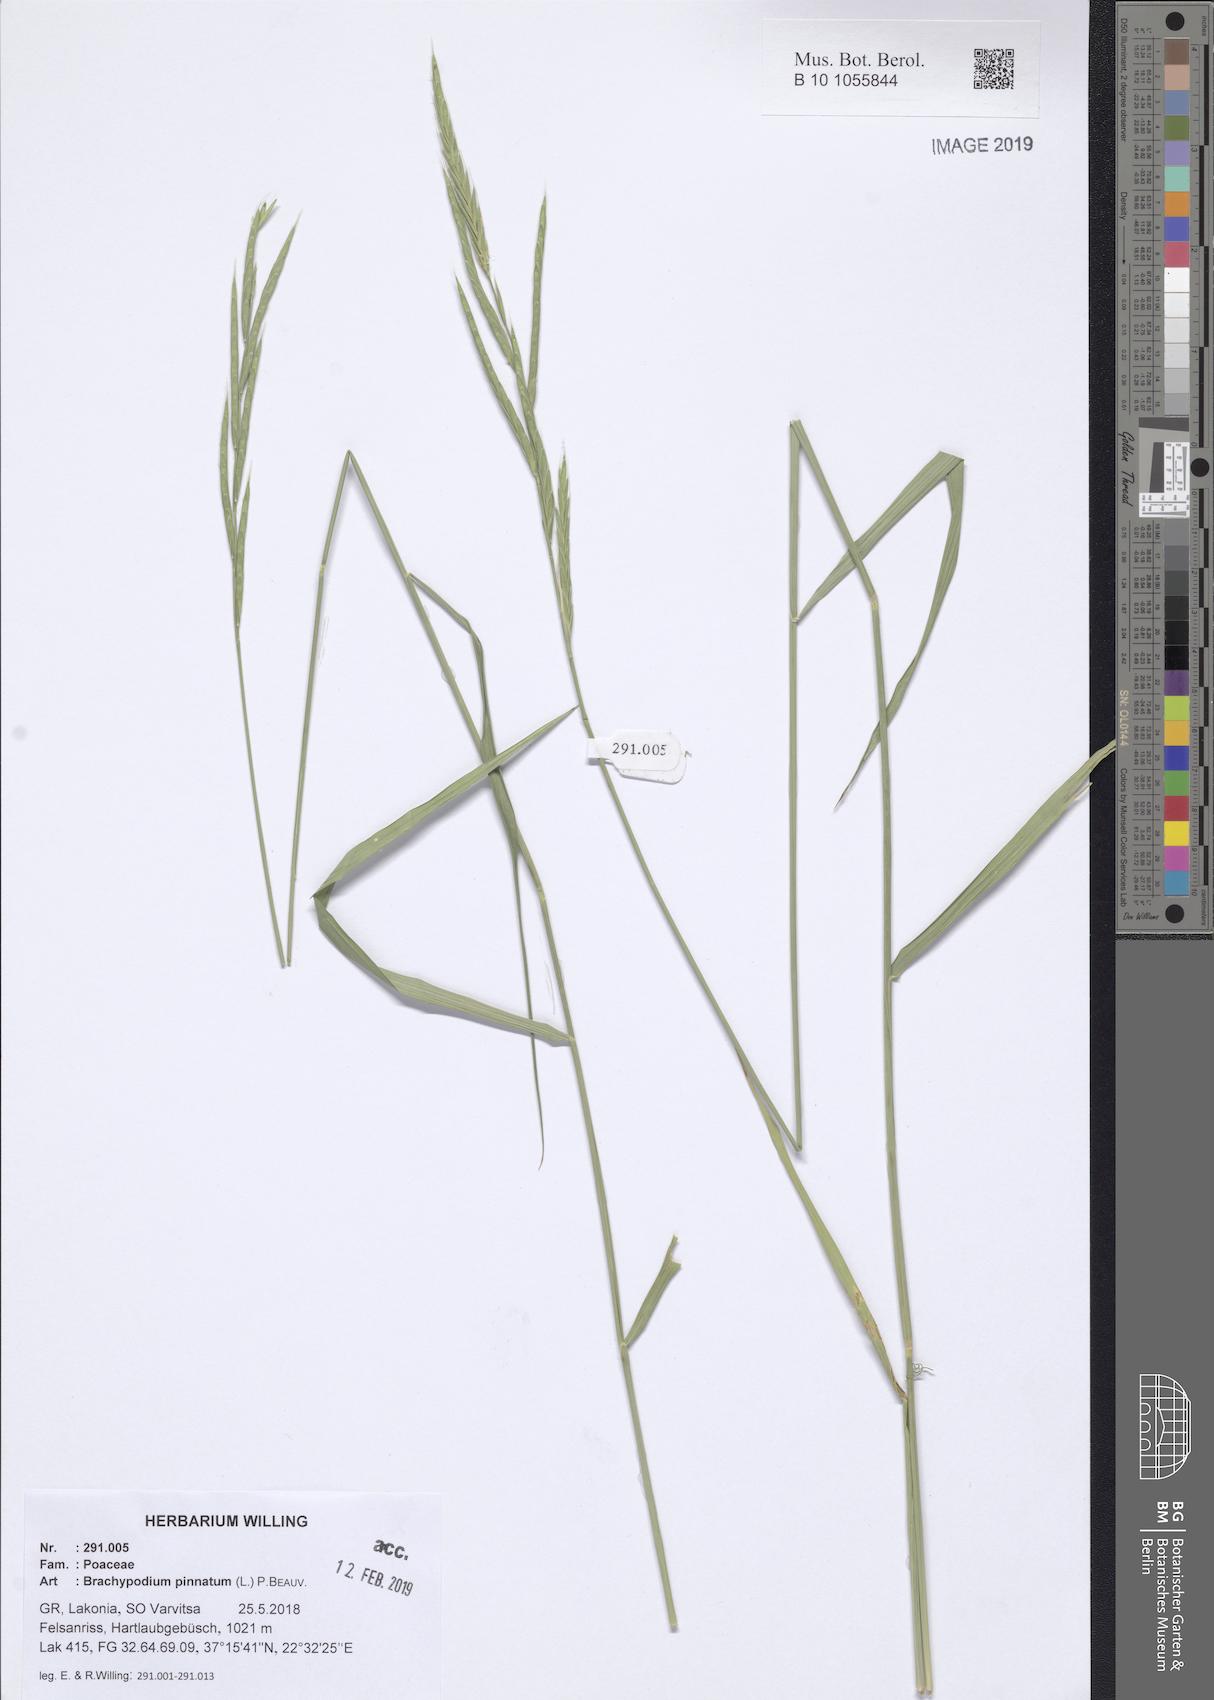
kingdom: Plantae
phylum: Tracheophyta
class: Liliopsida
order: Poales
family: Poaceae
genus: Brachypodium
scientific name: Brachypodium pinnatum
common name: Tor grass
